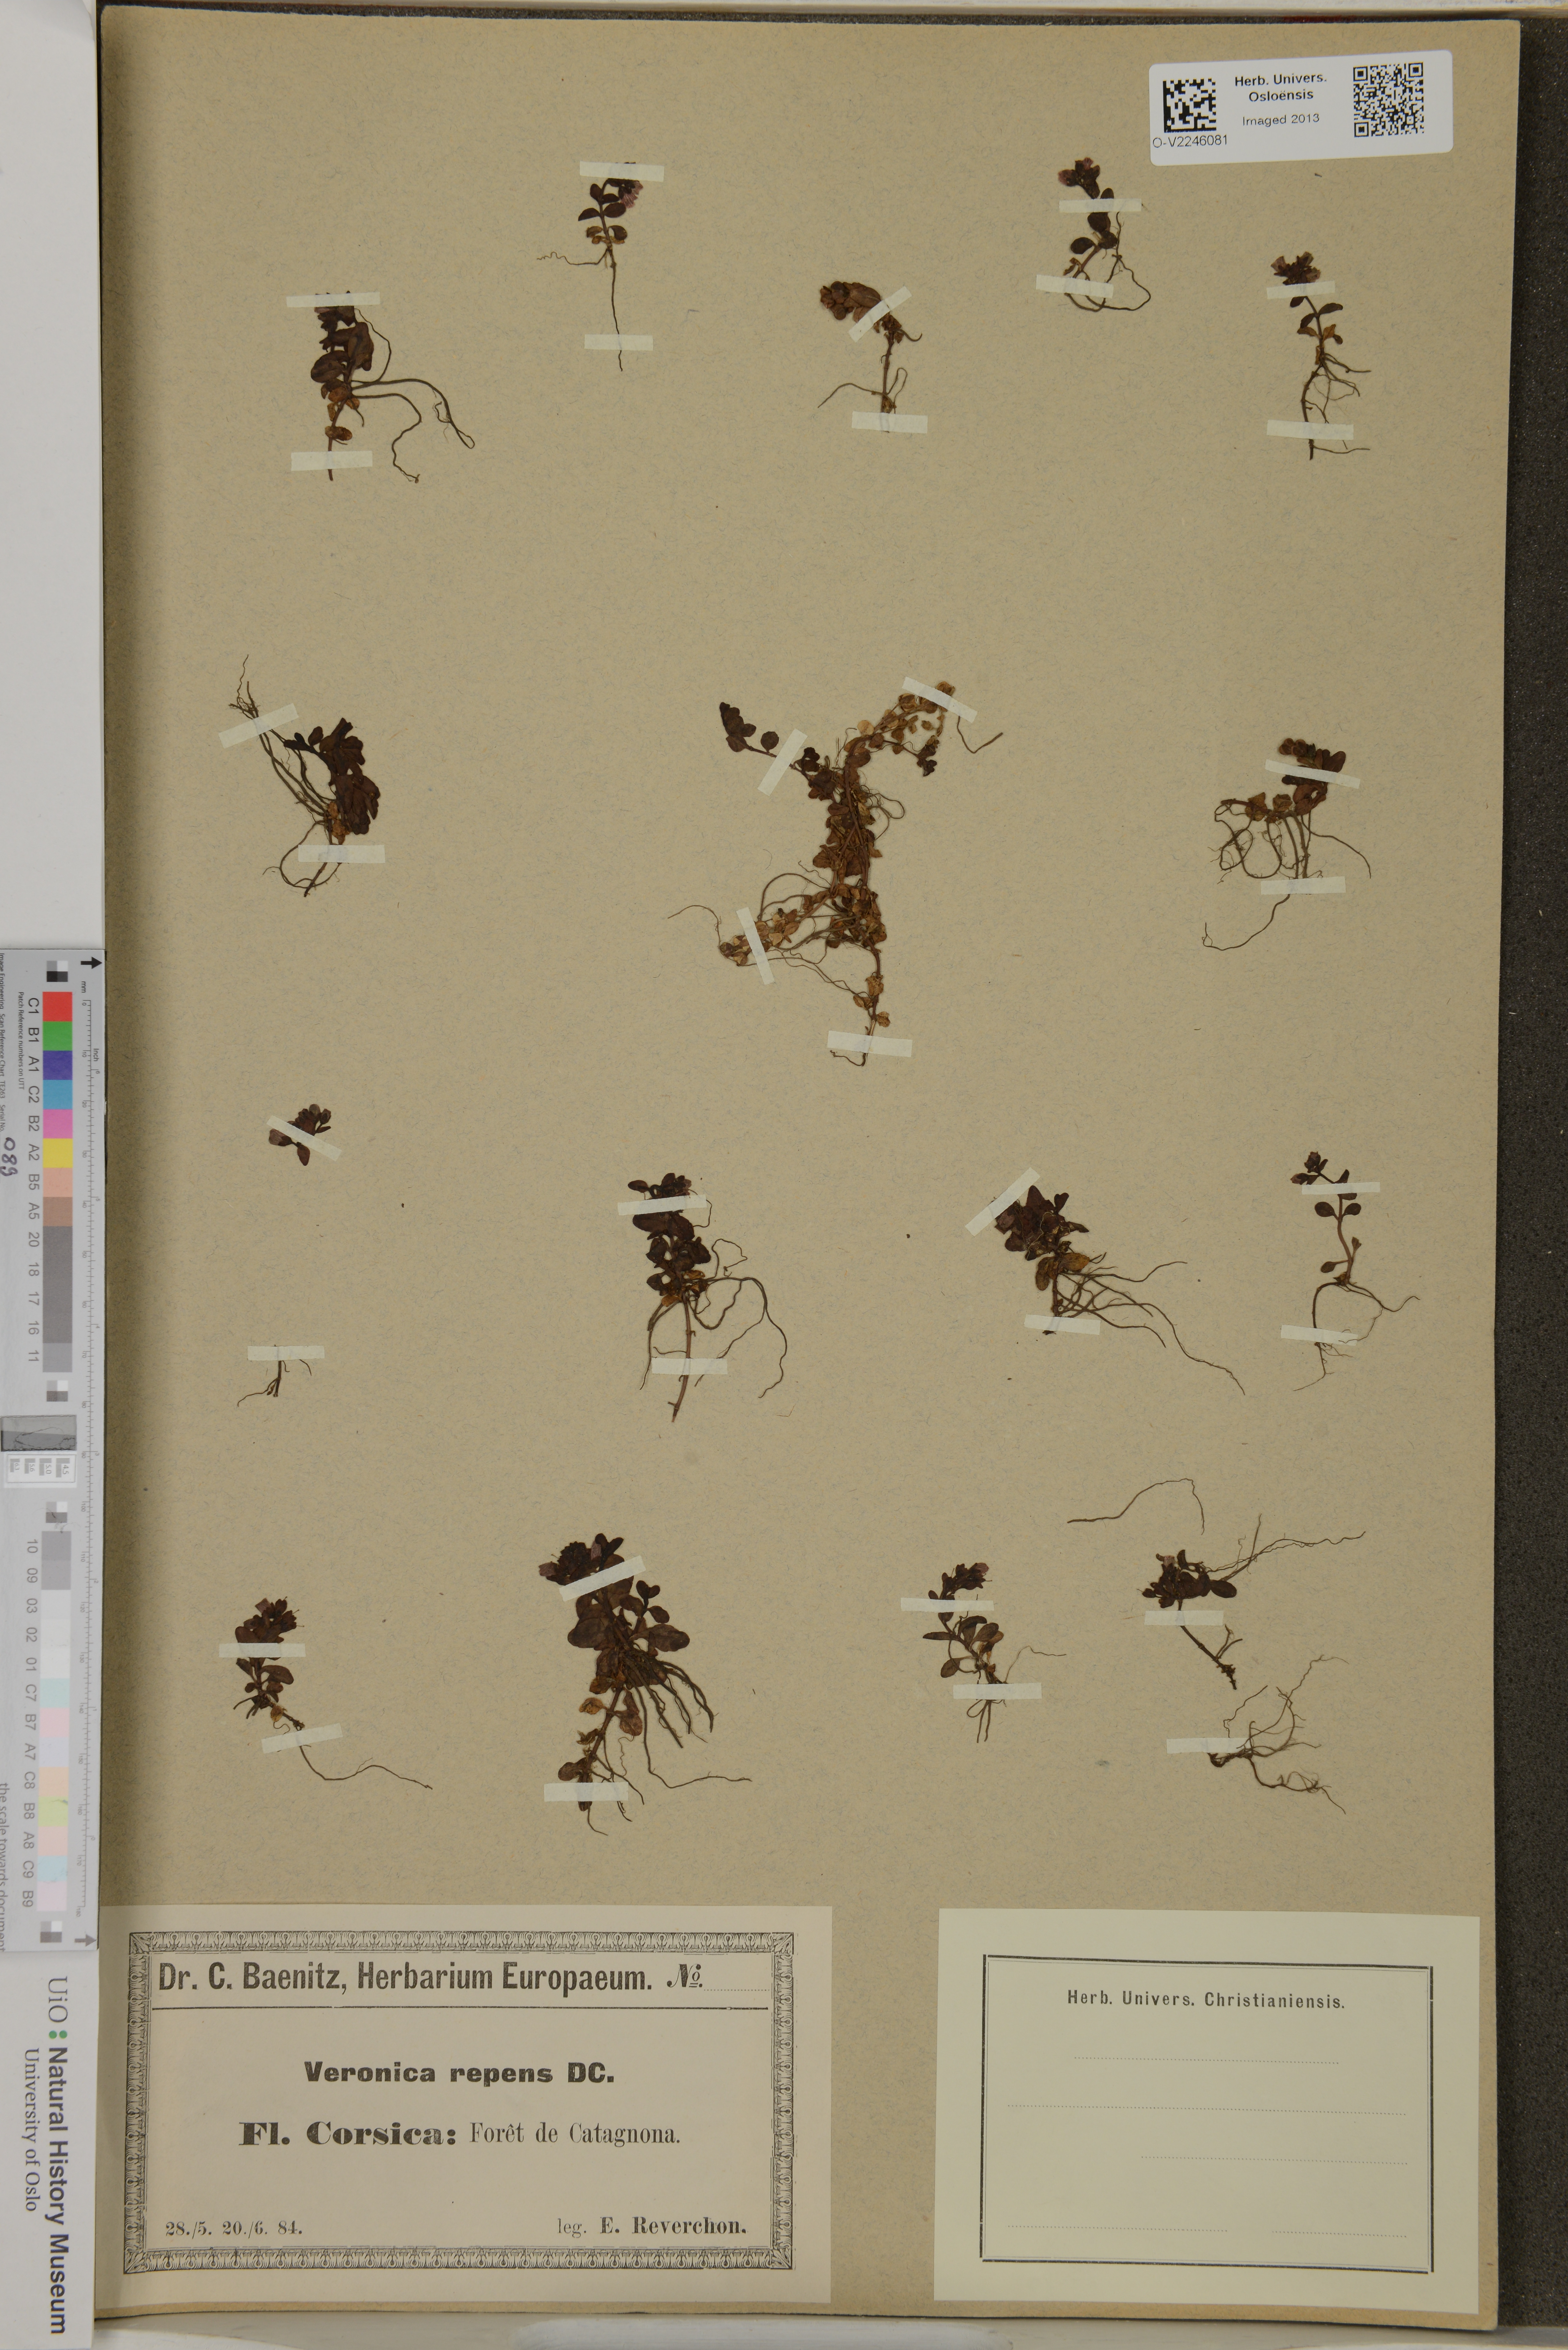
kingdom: Plantae
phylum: Tracheophyta
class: Magnoliopsida
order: Lamiales
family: Plantaginaceae
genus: Veronica
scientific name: Veronica repens
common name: Corsican speedwell
